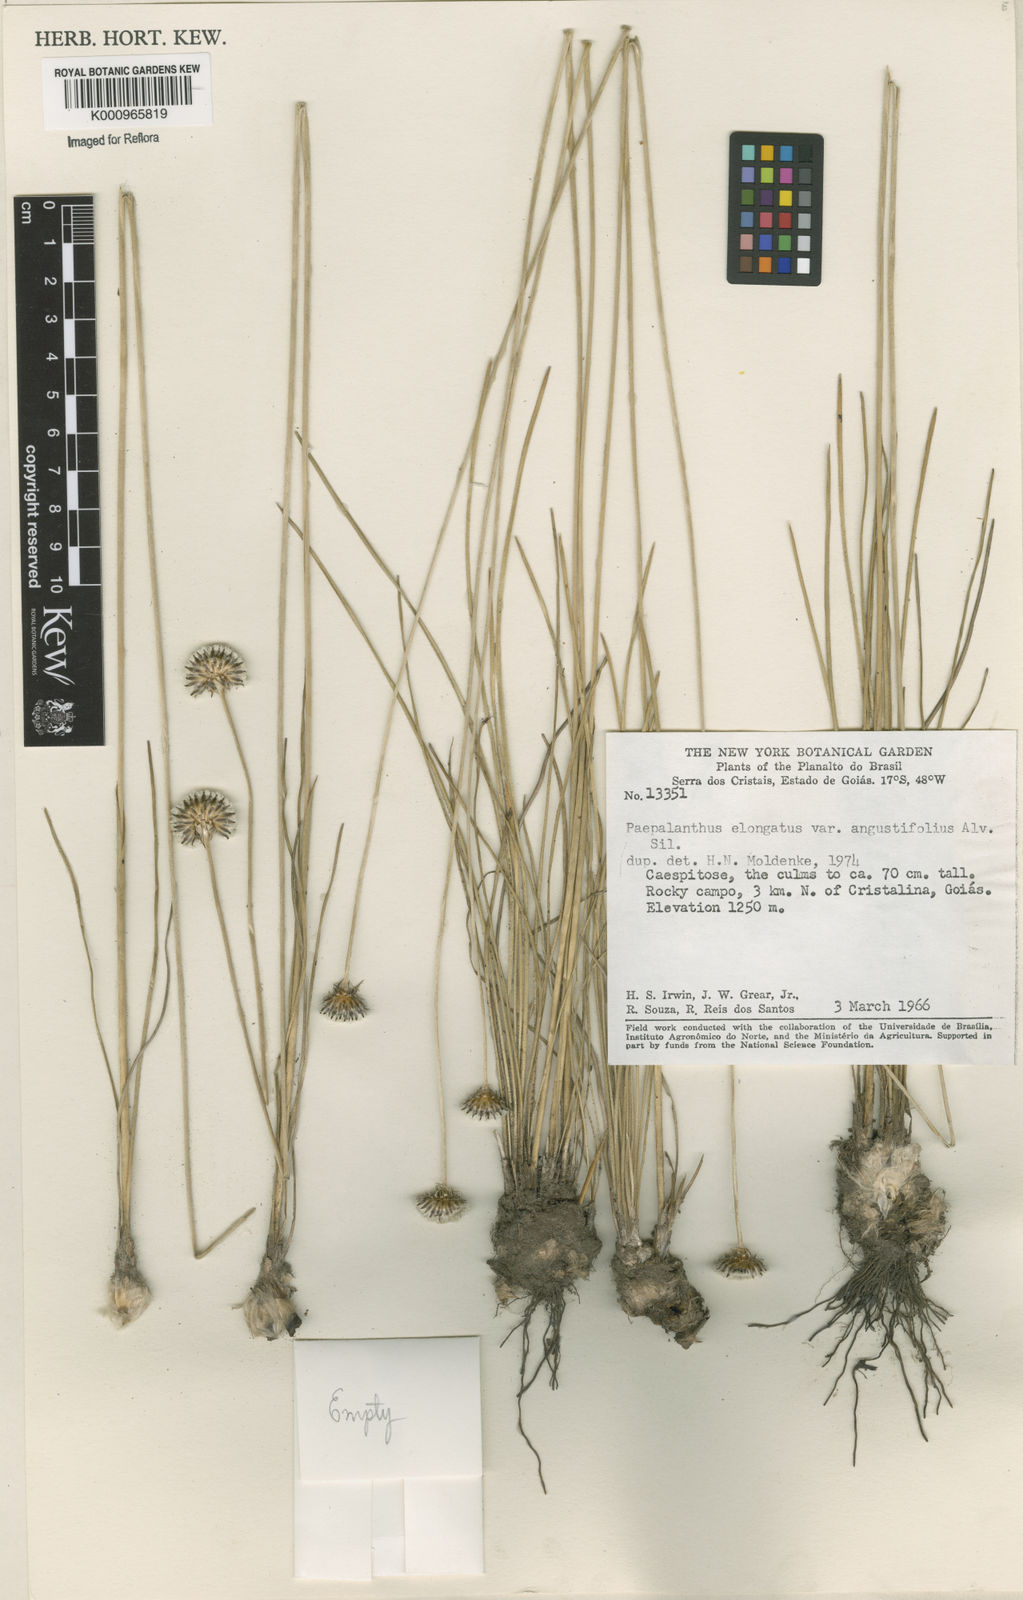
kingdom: Plantae
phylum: Tracheophyta
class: Liliopsida
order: Poales
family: Eriocaulaceae
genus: Paepalanthus
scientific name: Paepalanthus
